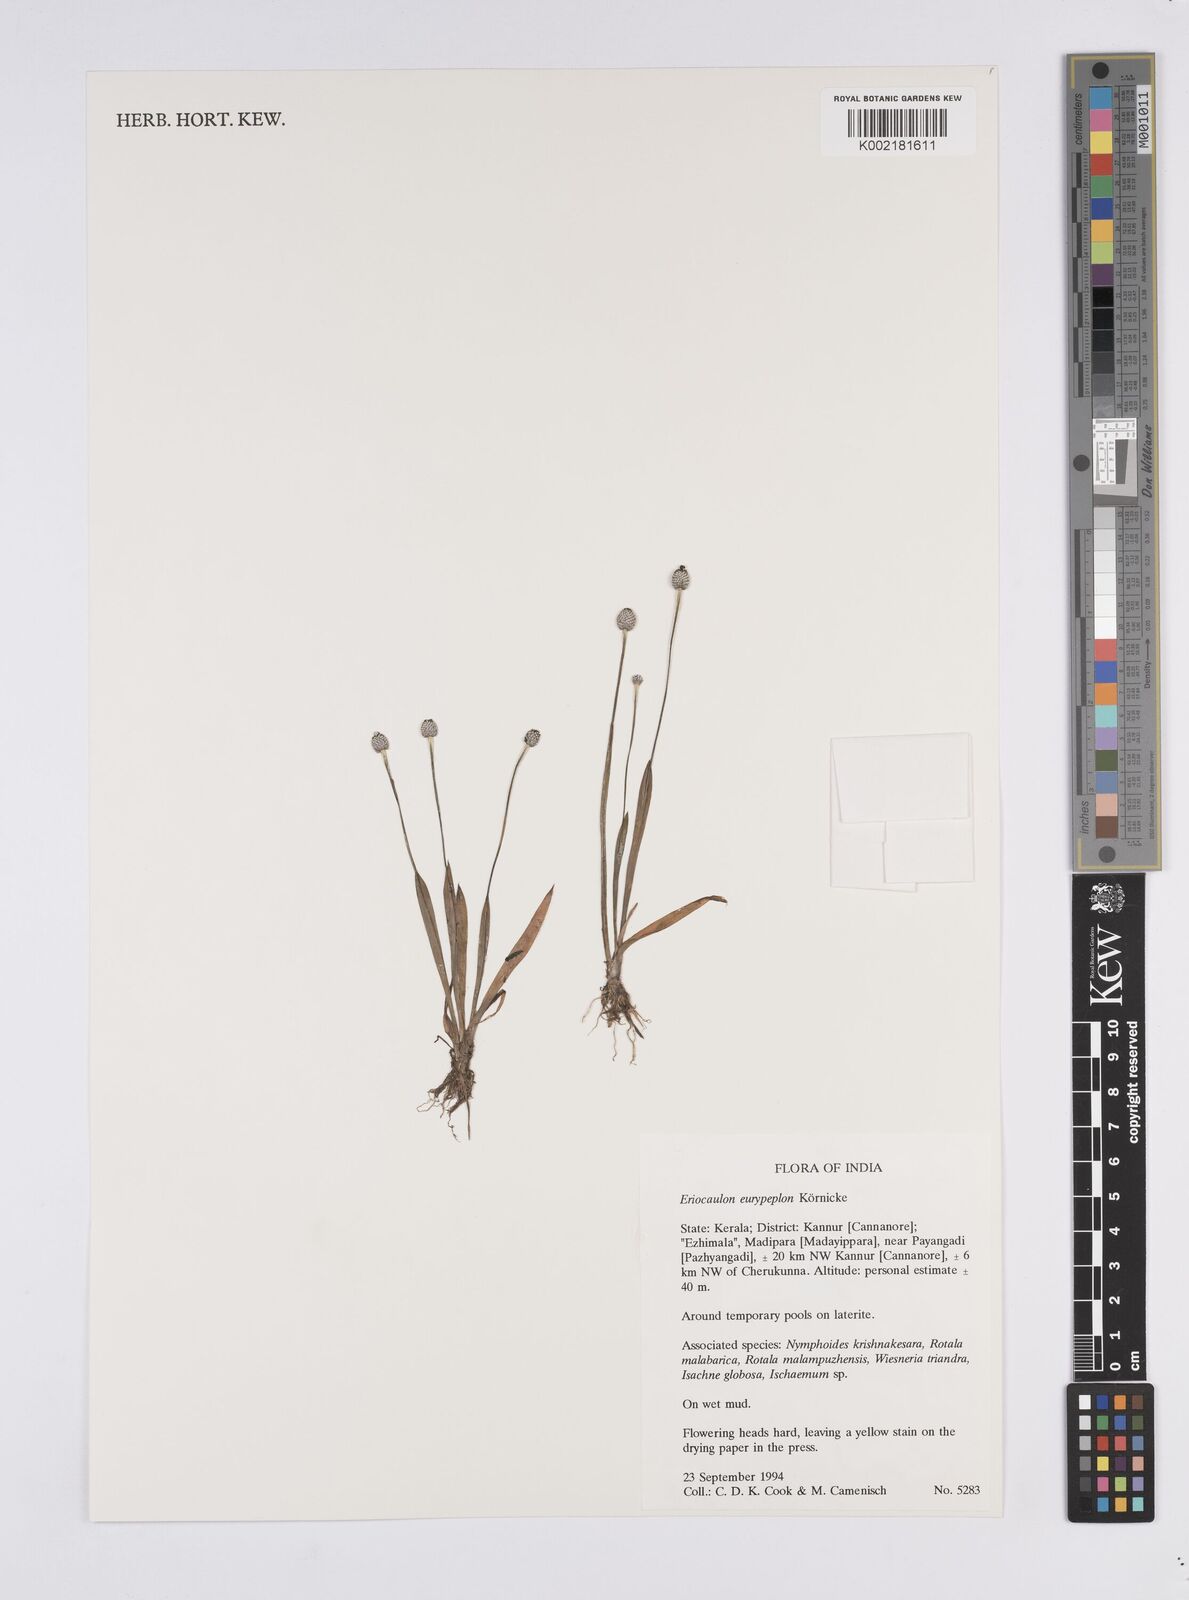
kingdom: Plantae
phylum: Tracheophyta
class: Liliopsida
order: Poales
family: Eriocaulaceae
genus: Eriocaulon
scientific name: Eriocaulon eurypeplon
